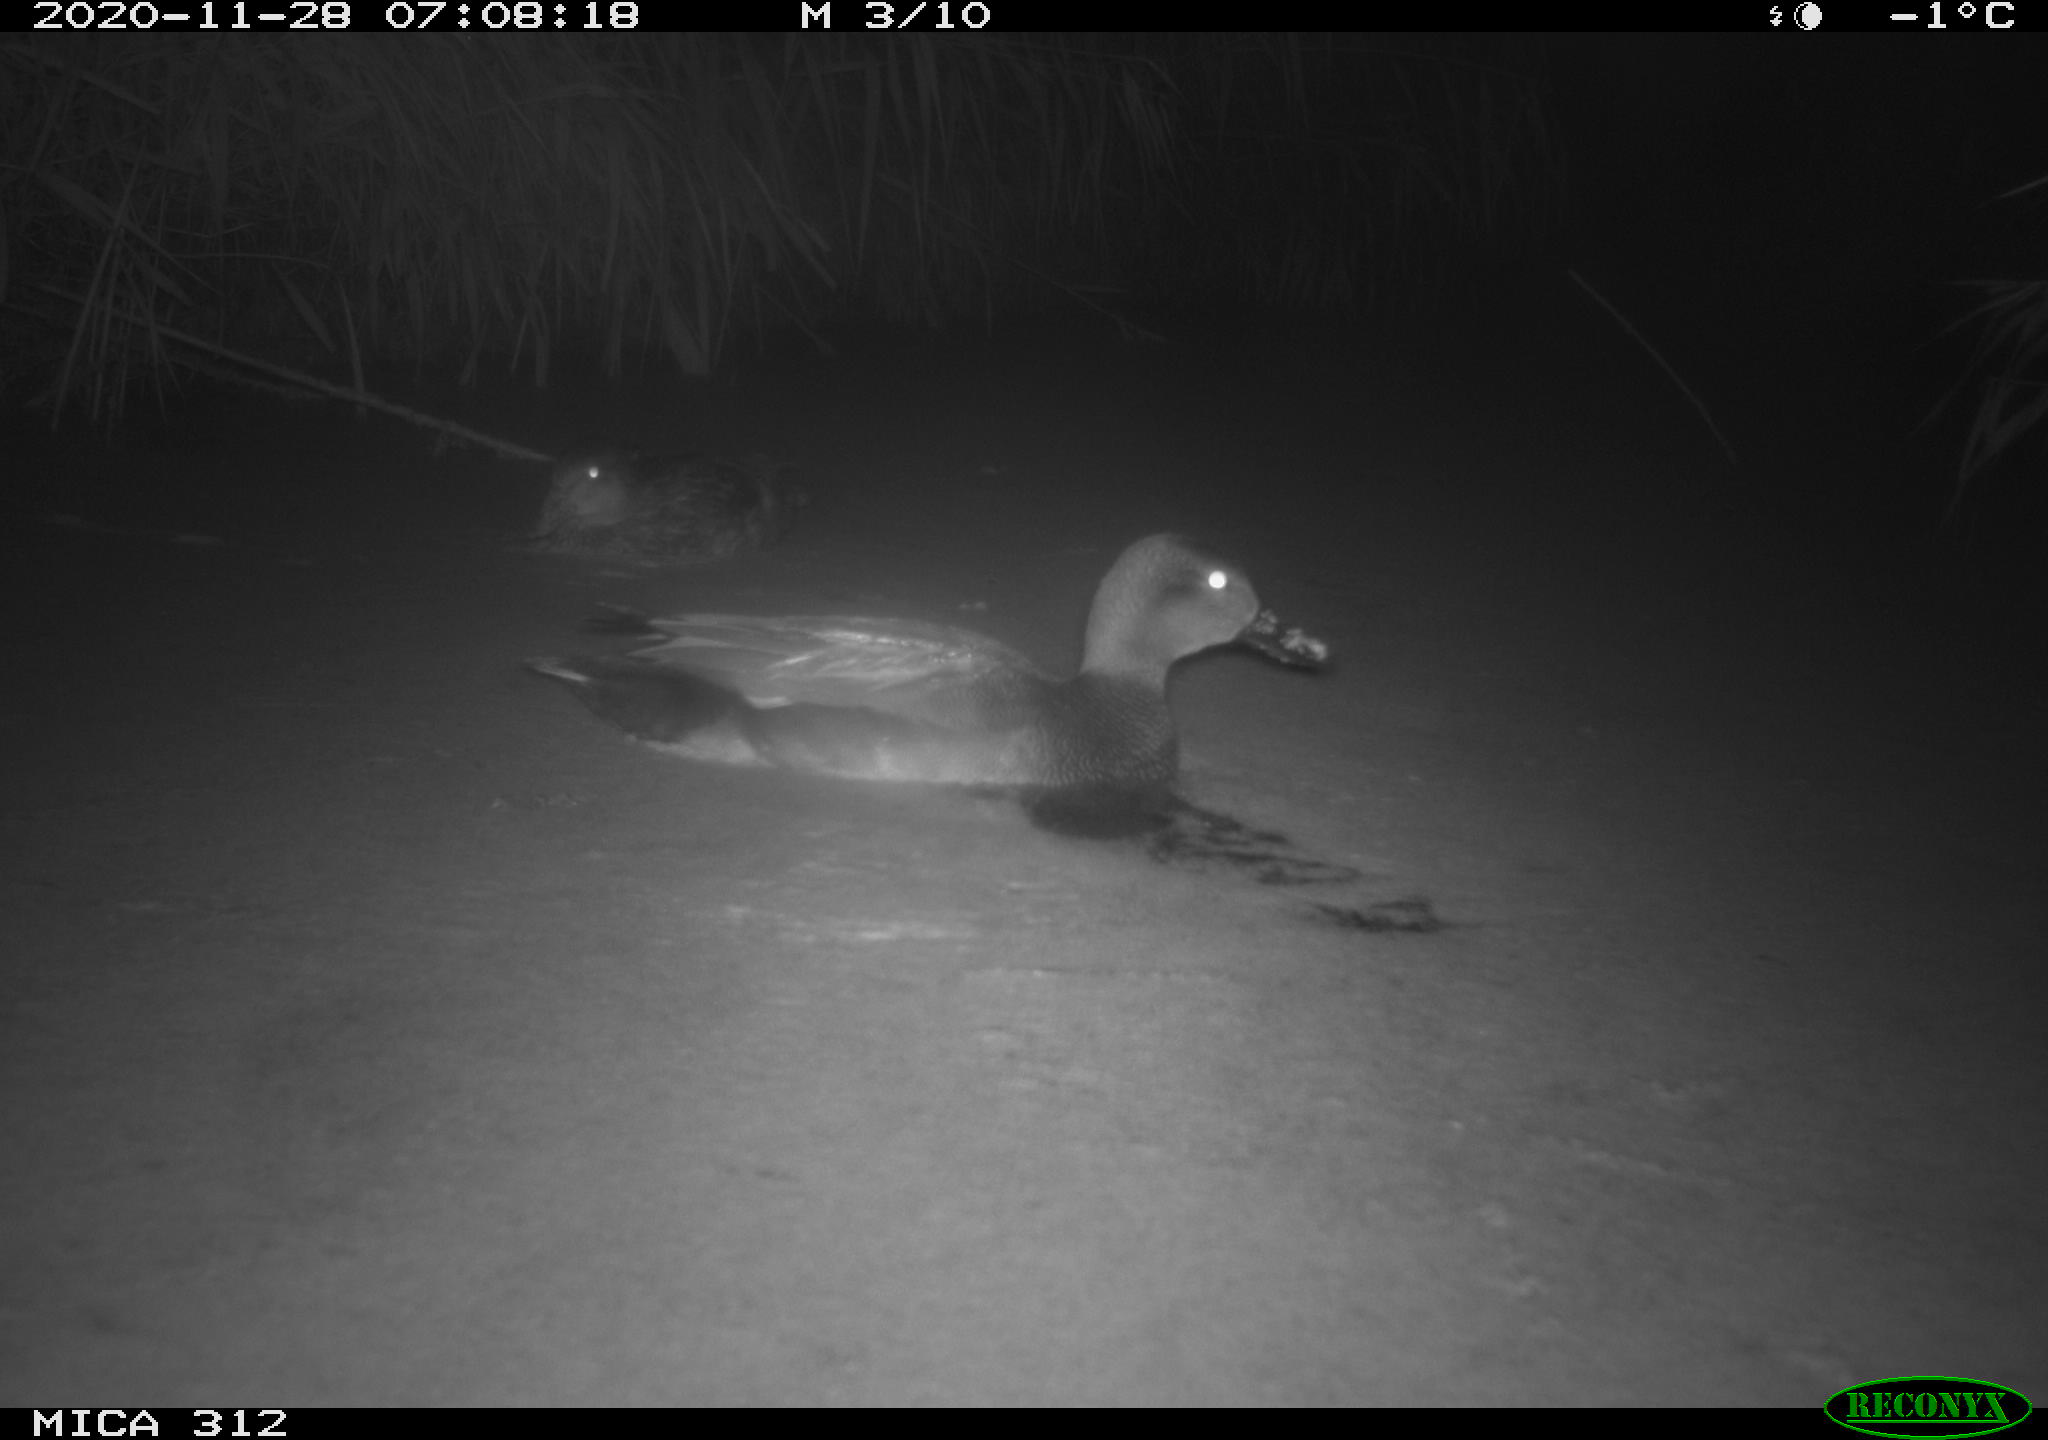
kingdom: Animalia
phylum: Chordata
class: Aves
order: Anseriformes
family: Anatidae
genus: Mareca
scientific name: Mareca strepera
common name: Gadwall
